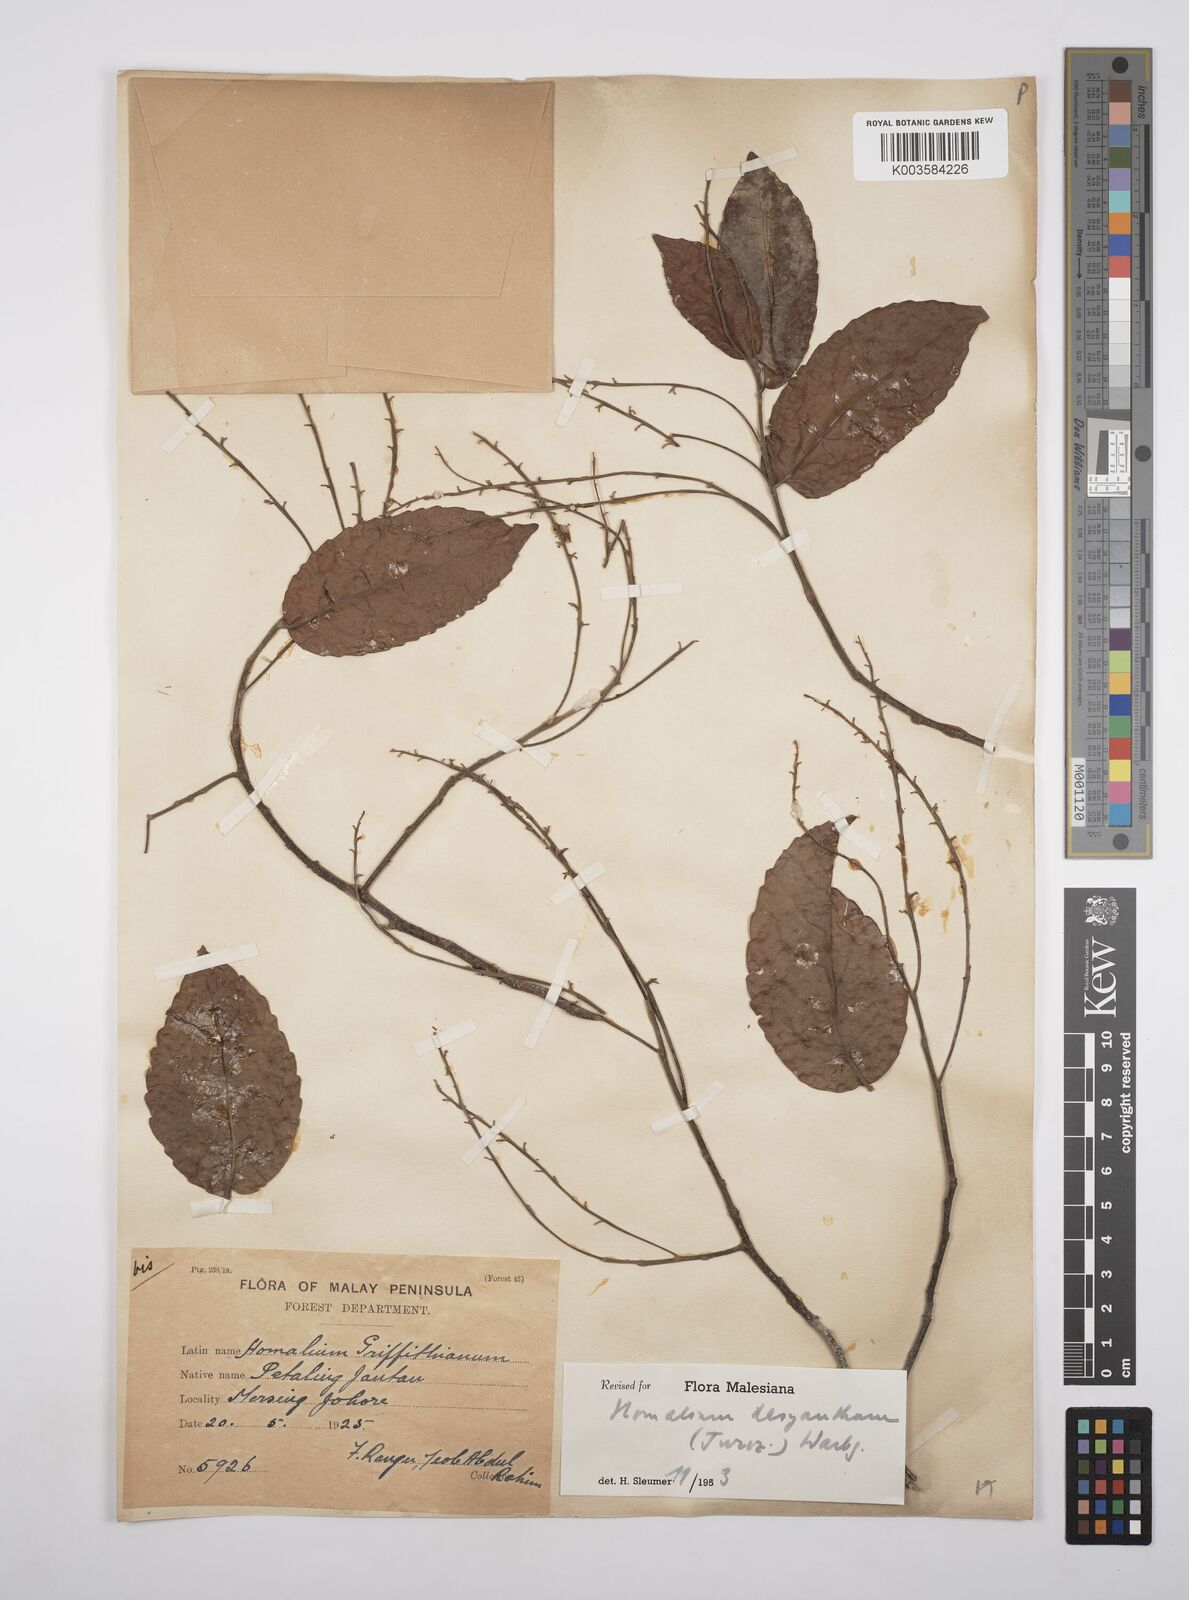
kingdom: Plantae
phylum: Tracheophyta
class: Magnoliopsida
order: Malpighiales
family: Salicaceae
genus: Homalium
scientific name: Homalium dasyanthum
